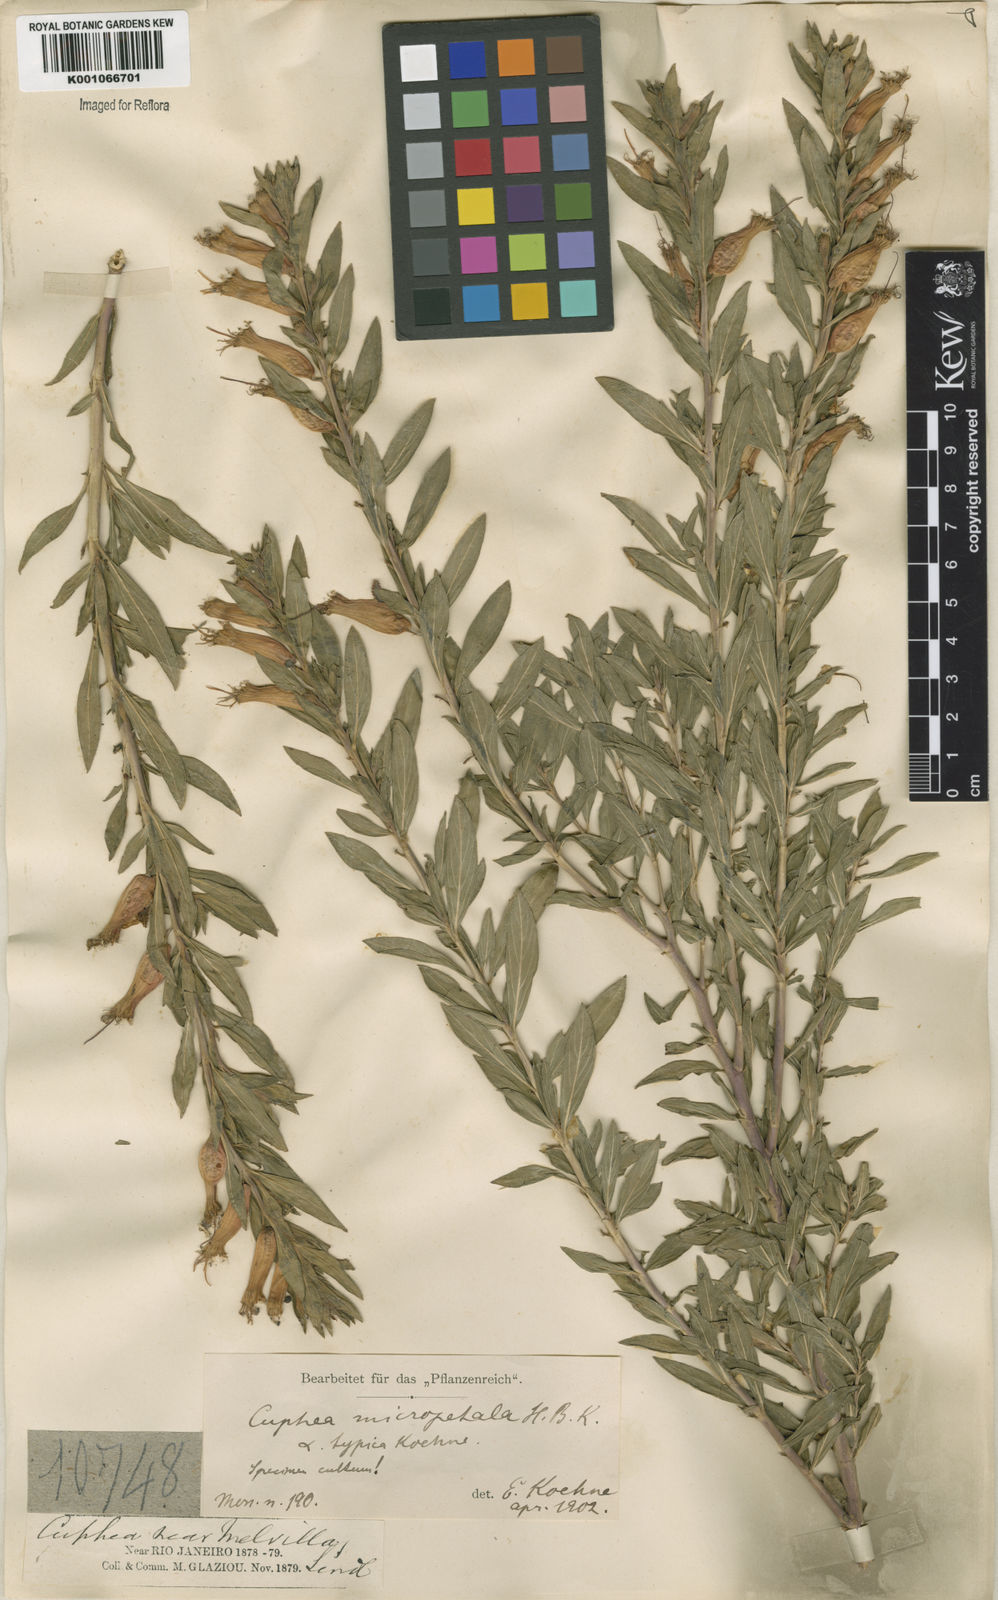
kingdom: Plantae
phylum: Tracheophyta
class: Magnoliopsida
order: Myrtales
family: Lythraceae
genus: Cuphea
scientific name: Cuphea micropetala
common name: Candycorn-plant
